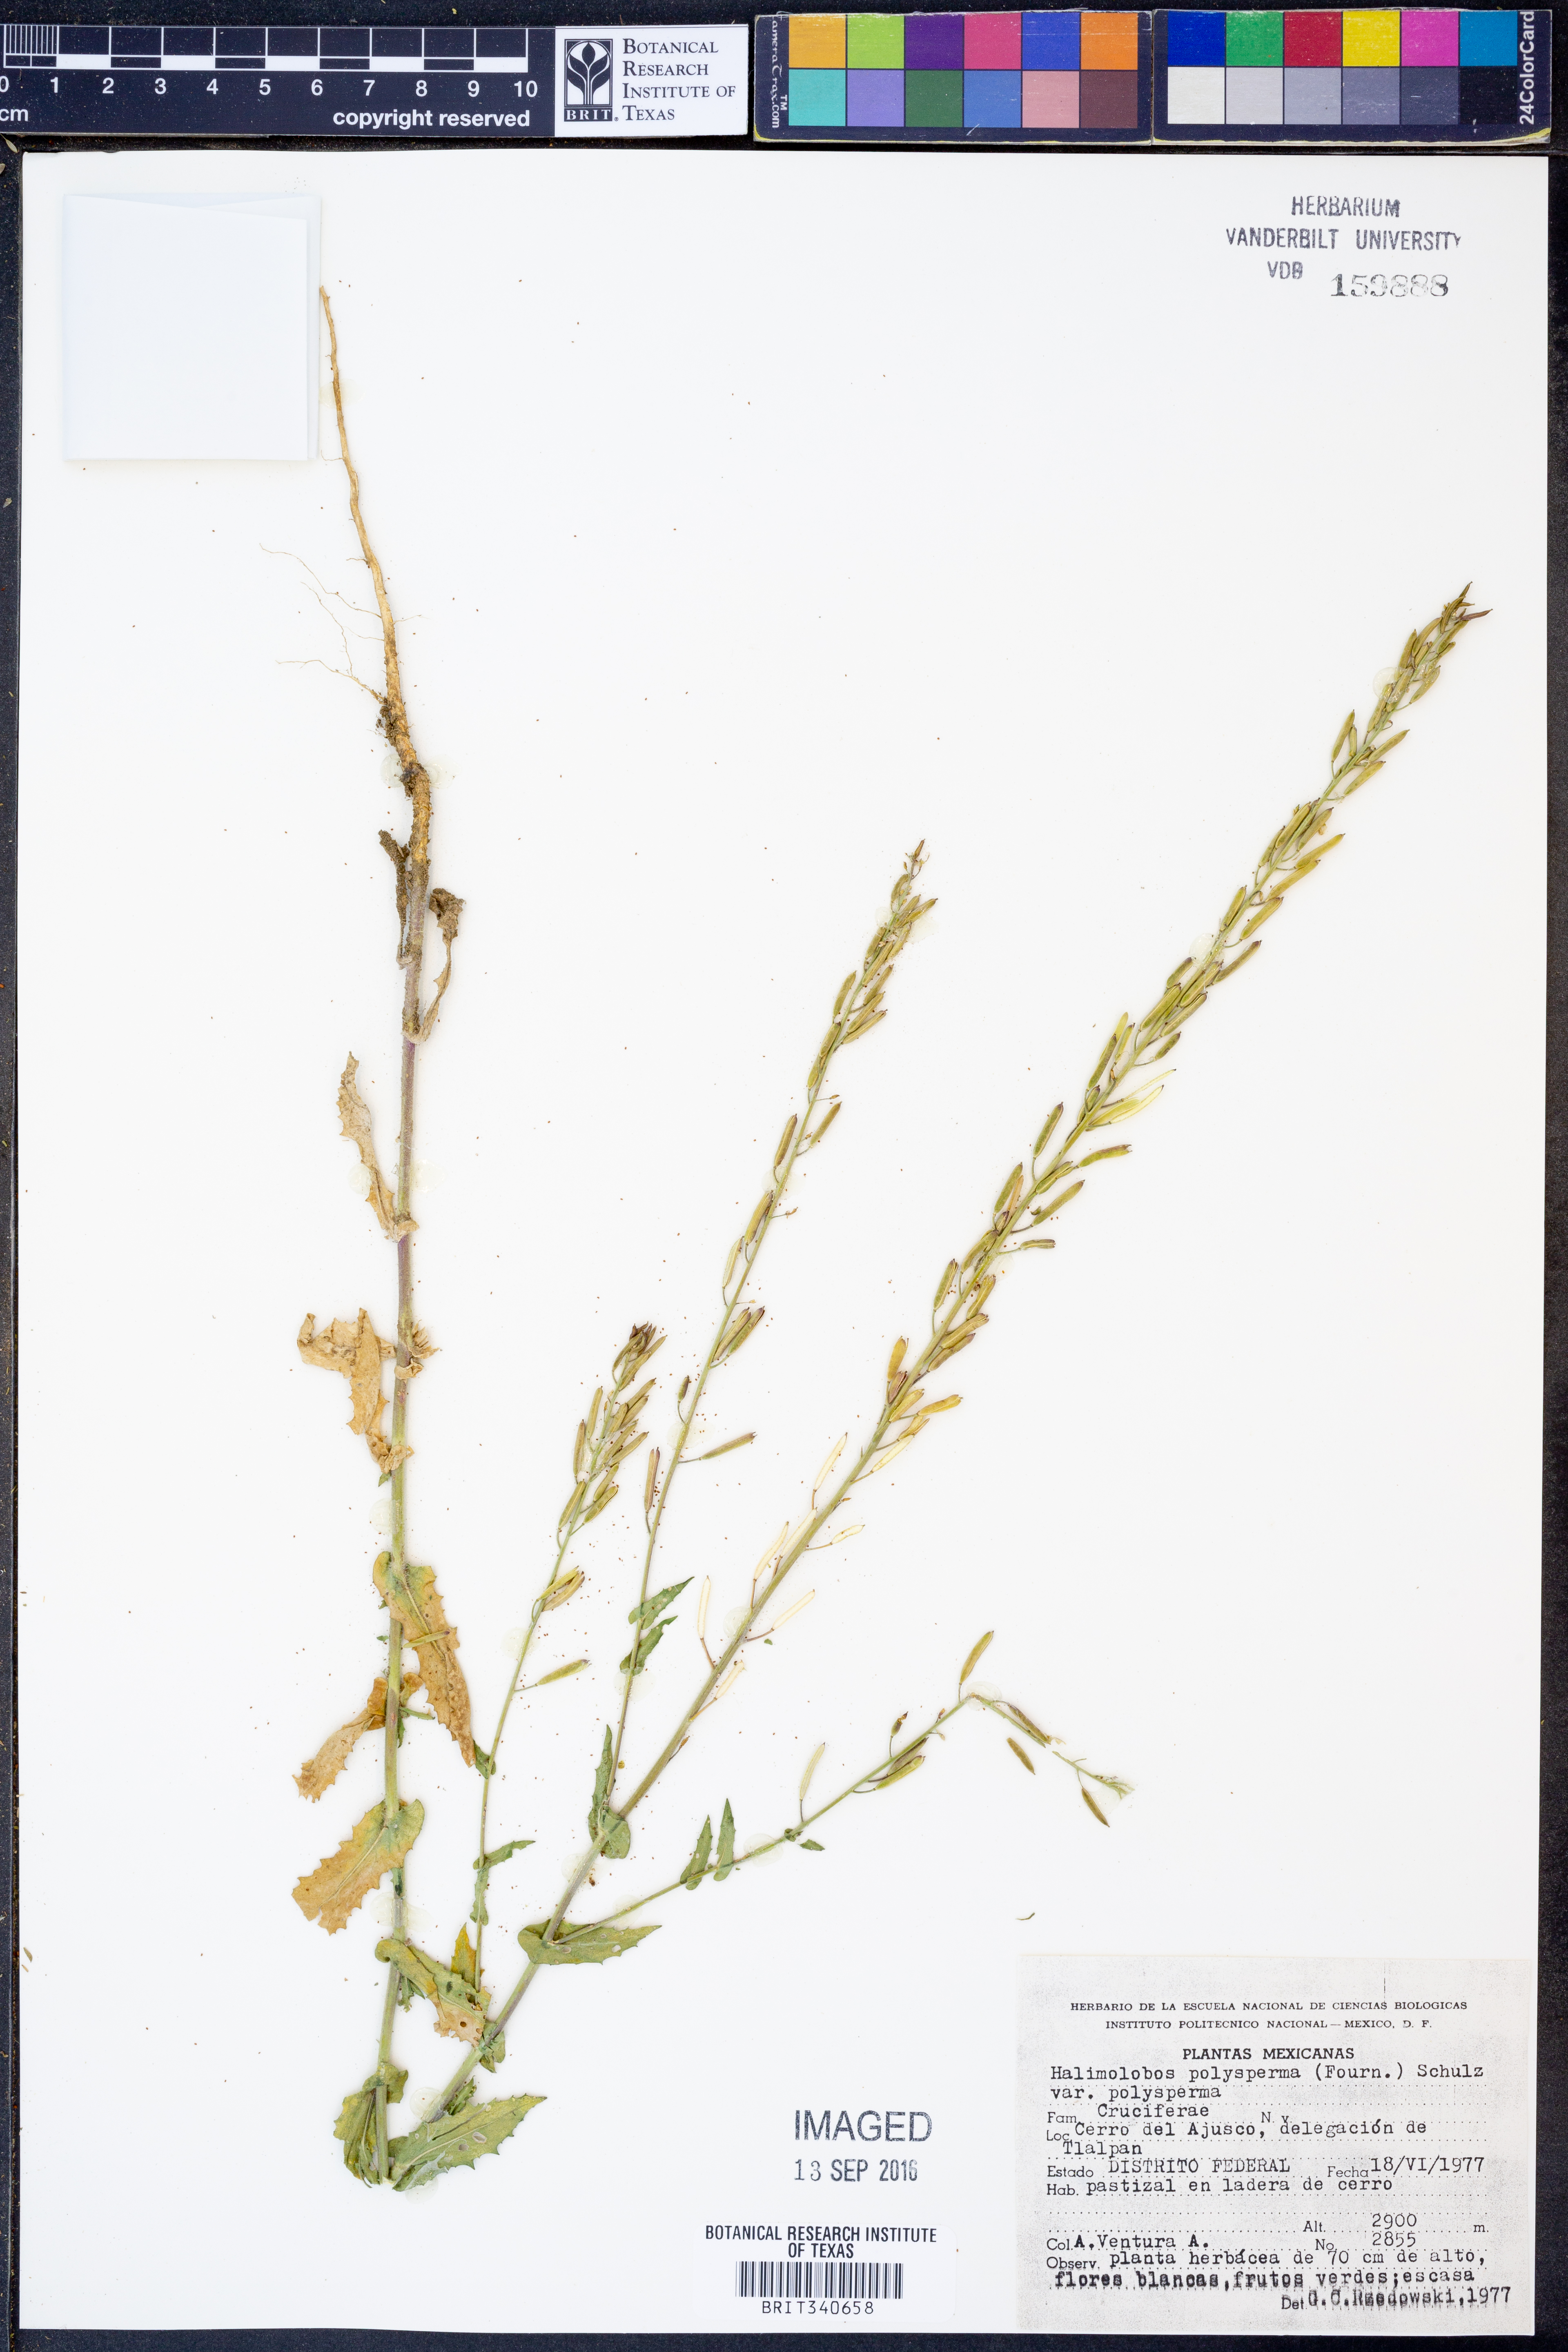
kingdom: Plantae
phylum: Tracheophyta
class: Magnoliopsida
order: Brassicales
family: Brassicaceae
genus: Exhalimolobos
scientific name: Exhalimolobos polyspermus
